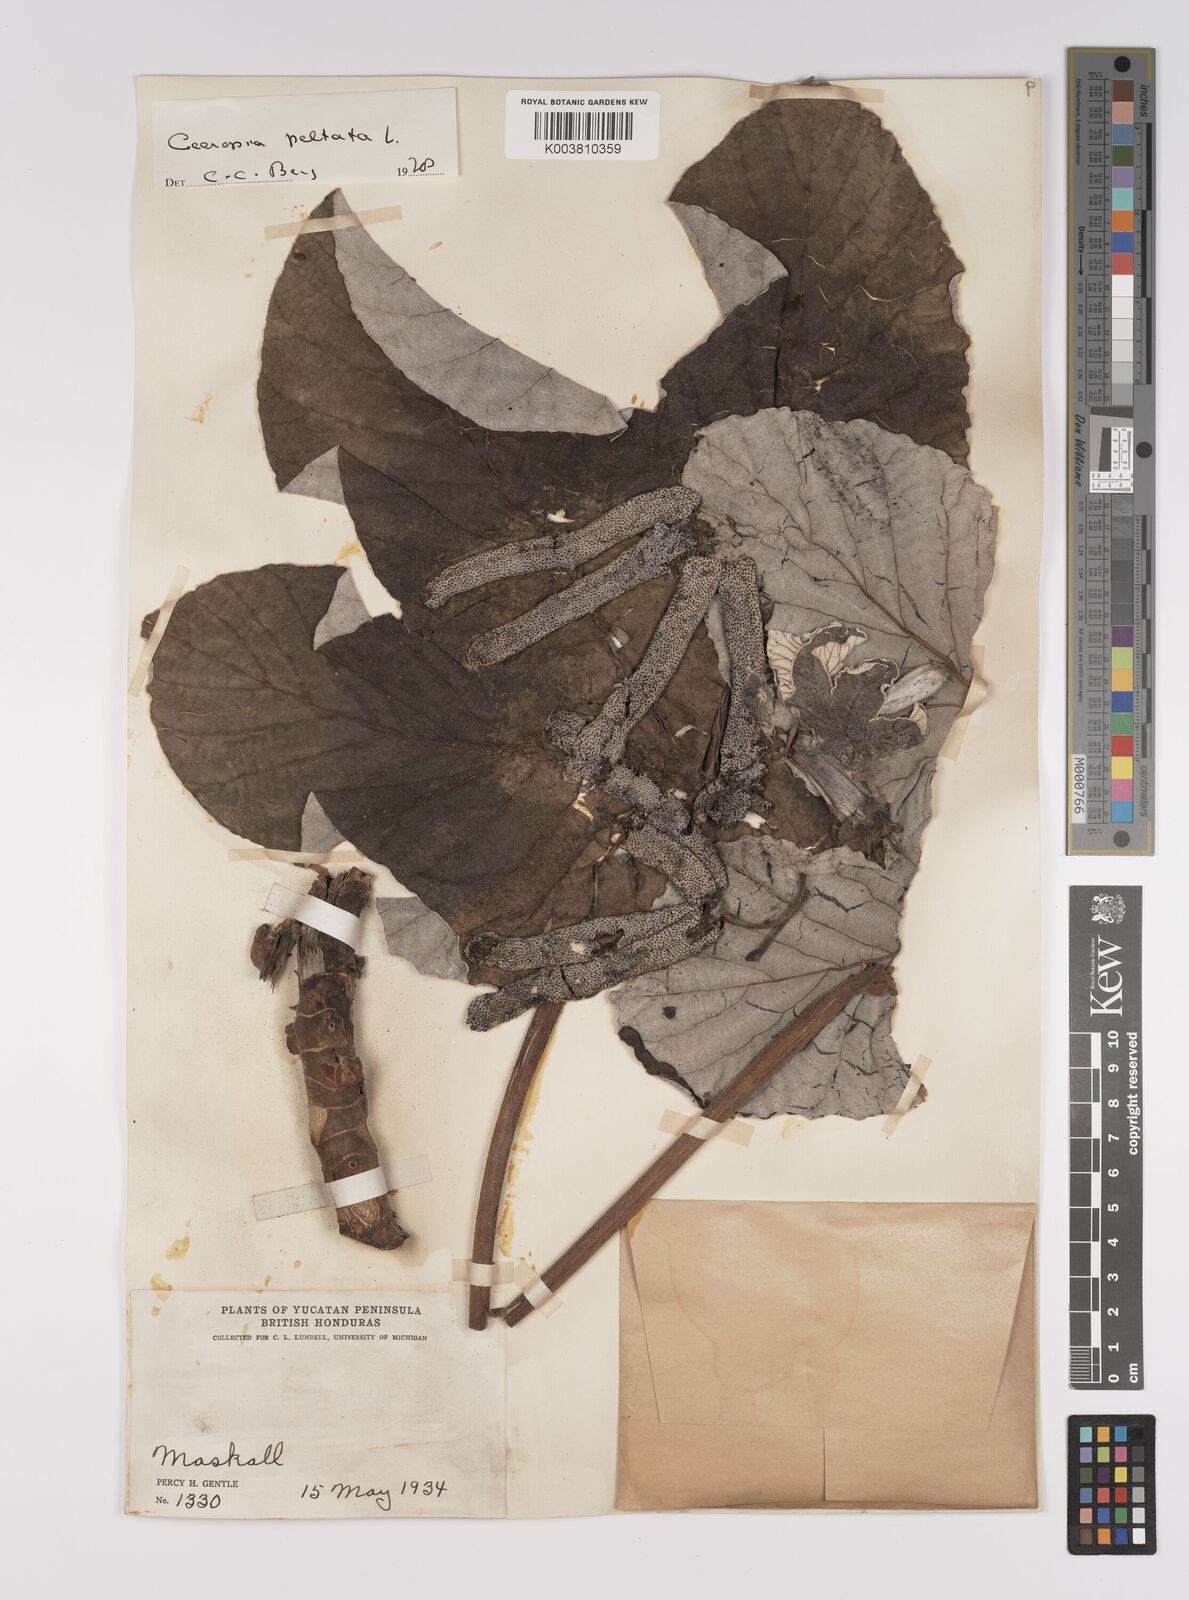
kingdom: Plantae
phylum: Tracheophyta
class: Magnoliopsida
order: Rosales
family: Urticaceae
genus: Cecropia
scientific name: Cecropia peltata
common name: Trumpet-tree
